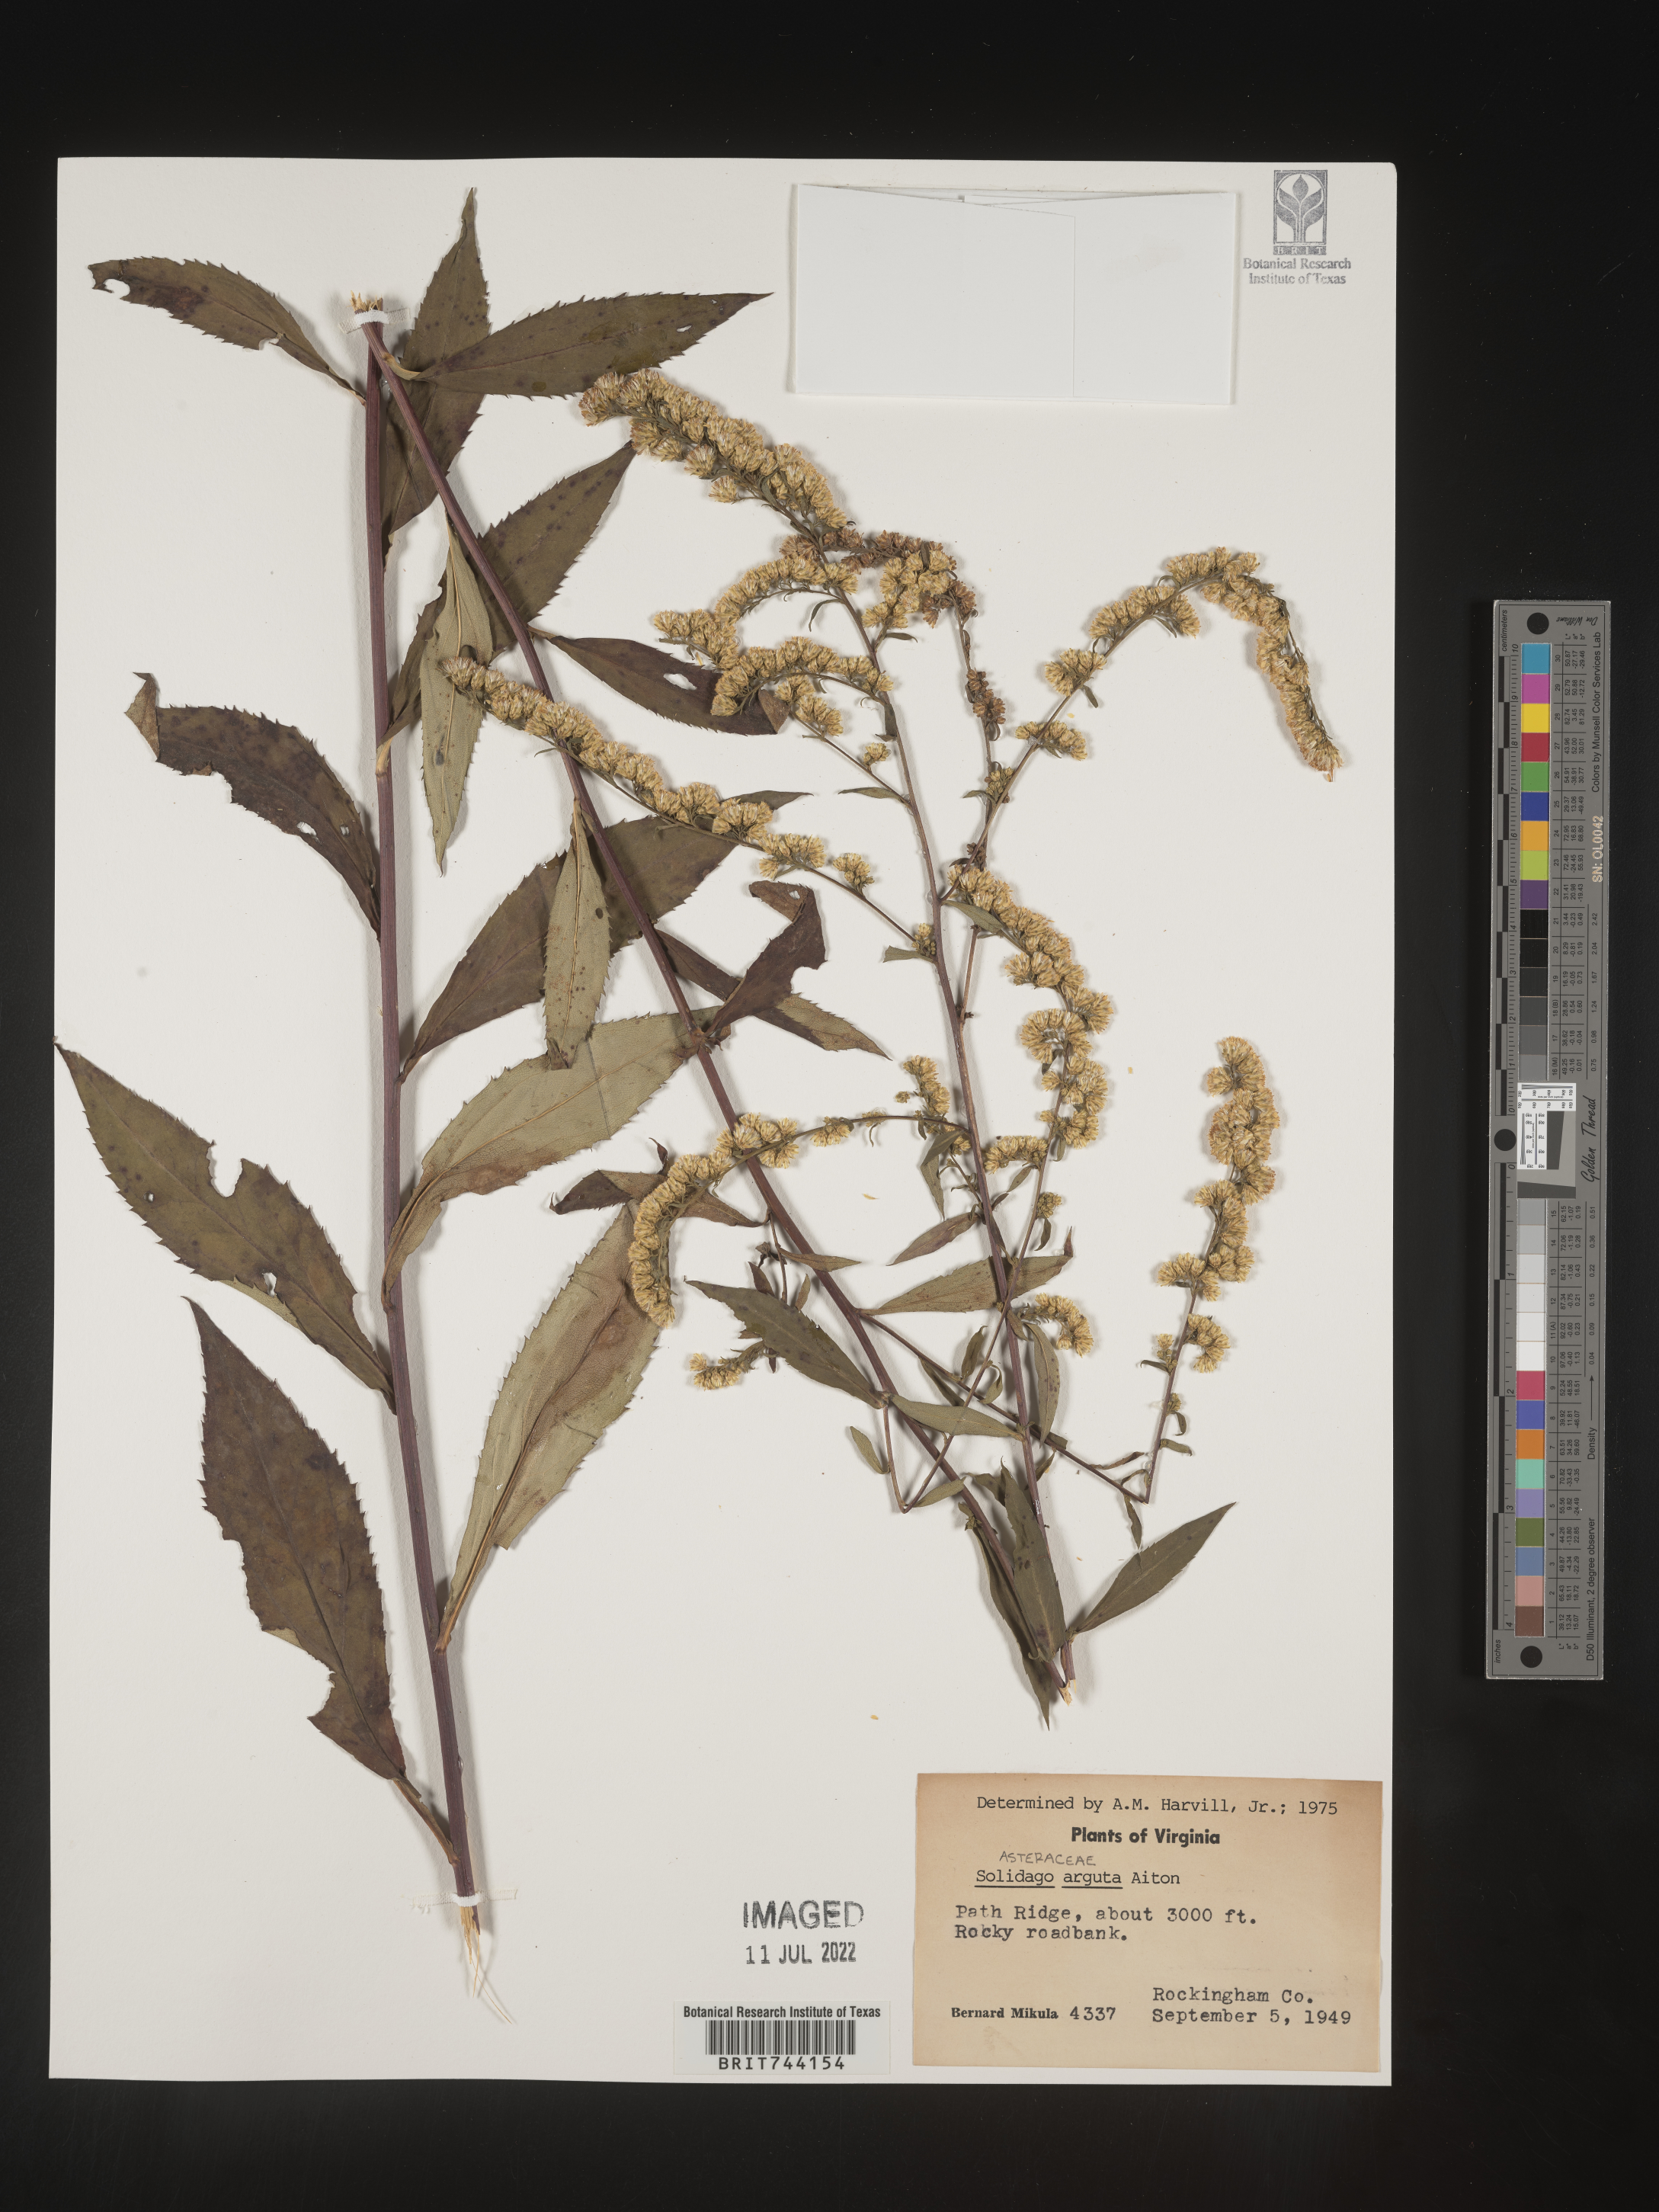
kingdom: Plantae
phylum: Tracheophyta
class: Magnoliopsida
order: Asterales
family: Asteraceae
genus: Solidago
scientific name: Solidago arguta
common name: Atlantic goldenrod
